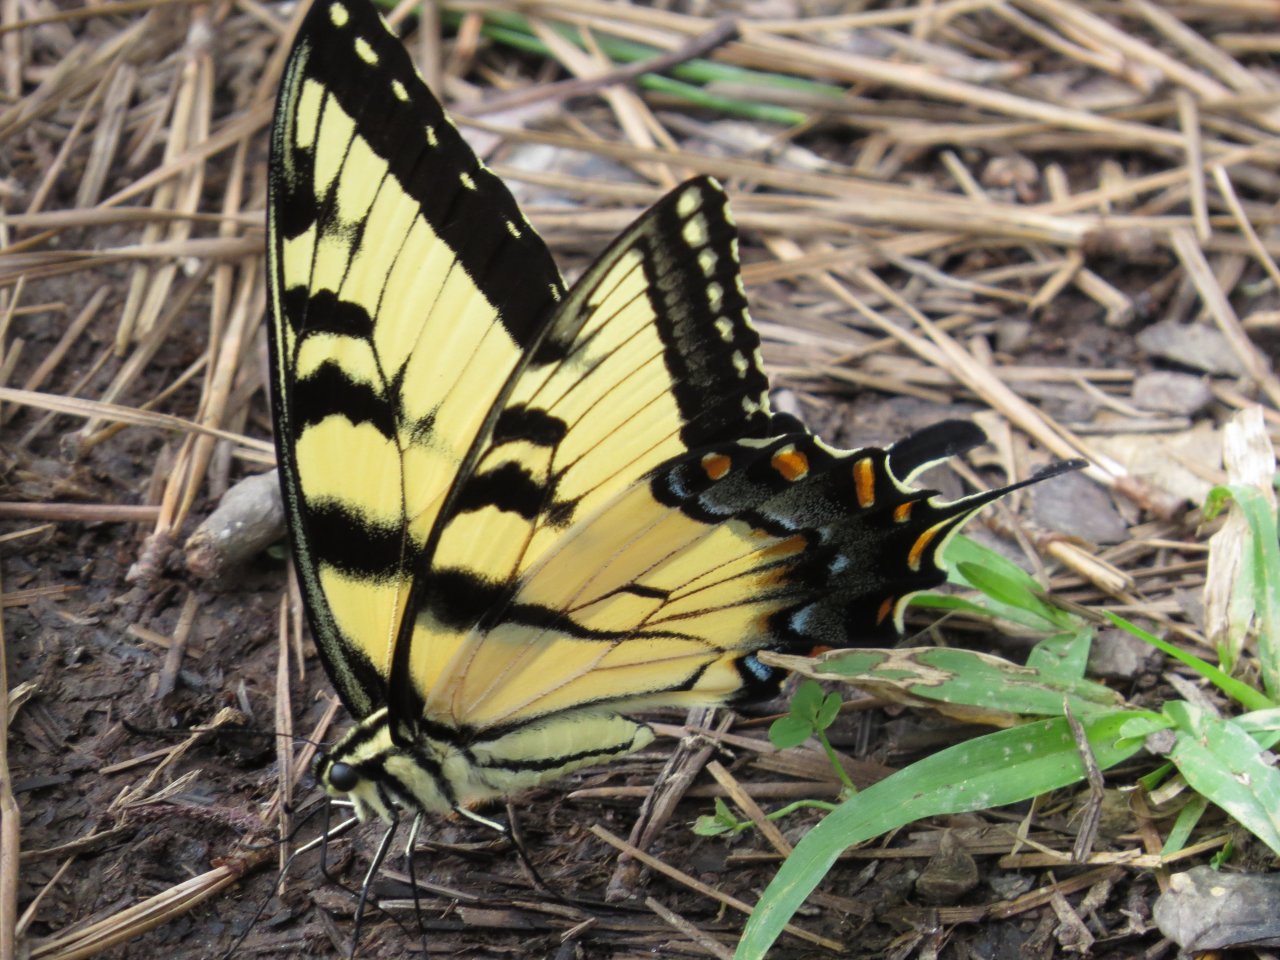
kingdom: Animalia
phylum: Arthropoda
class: Insecta
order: Lepidoptera
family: Papilionidae
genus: Pterourus
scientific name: Pterourus glaucus
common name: Eastern Tiger Swallowtail
